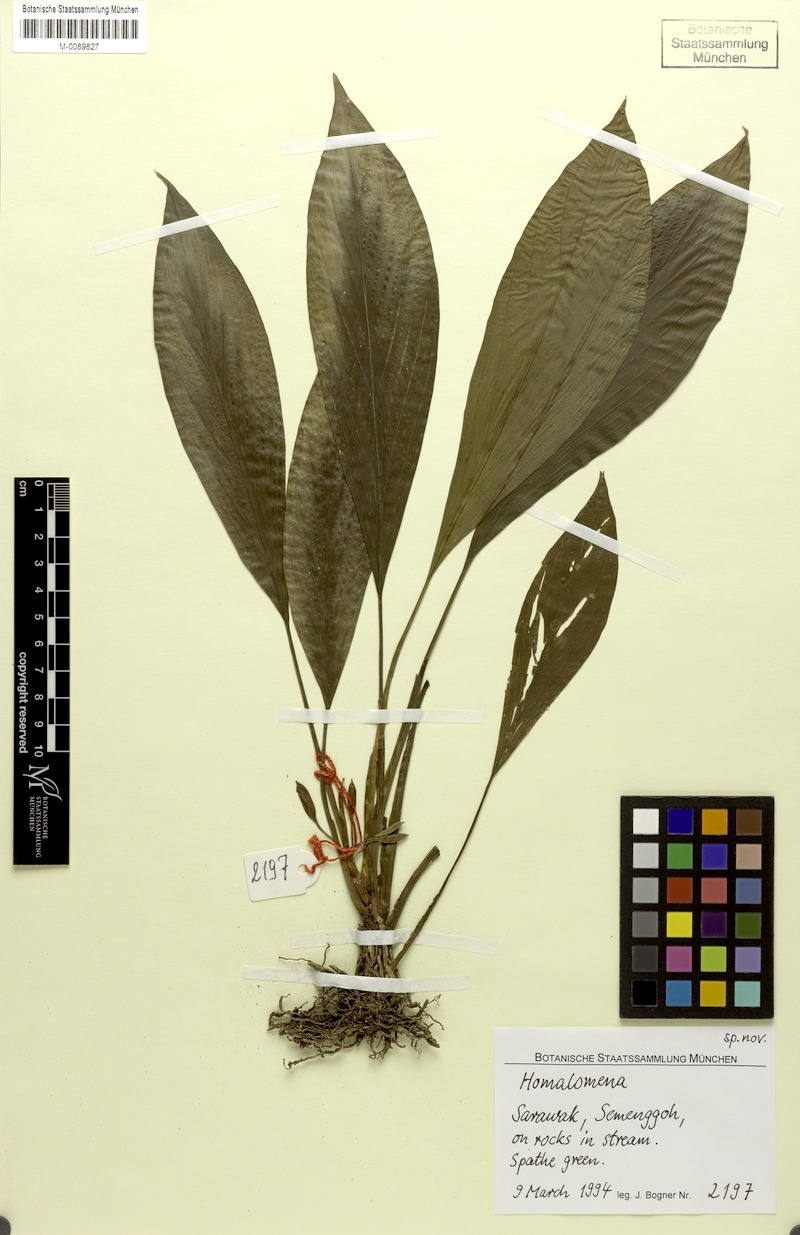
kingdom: Plantae
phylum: Tracheophyta
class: Liliopsida
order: Alismatales
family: Araceae
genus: Homalomena
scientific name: Homalomena
